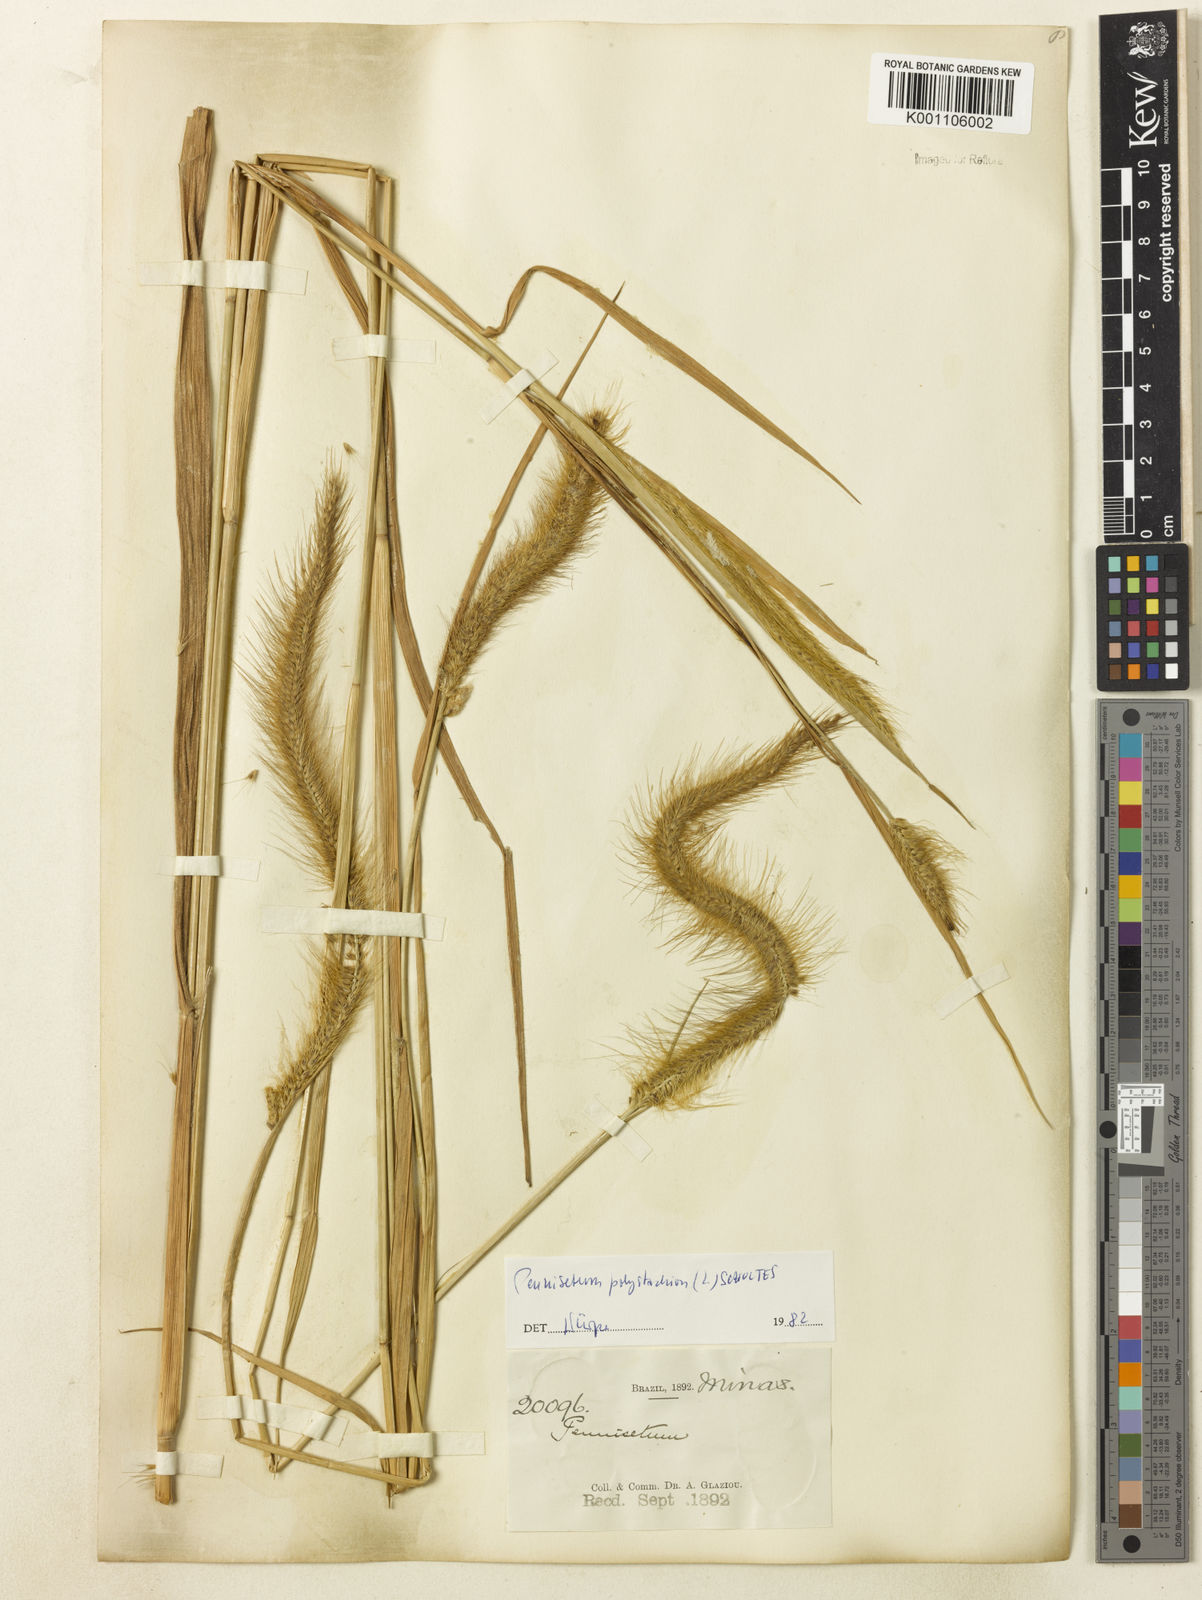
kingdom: Plantae
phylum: Tracheophyta
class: Liliopsida
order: Poales
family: Poaceae
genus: Setaria
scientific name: Setaria parviflora
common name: Knotroot bristle-grass
